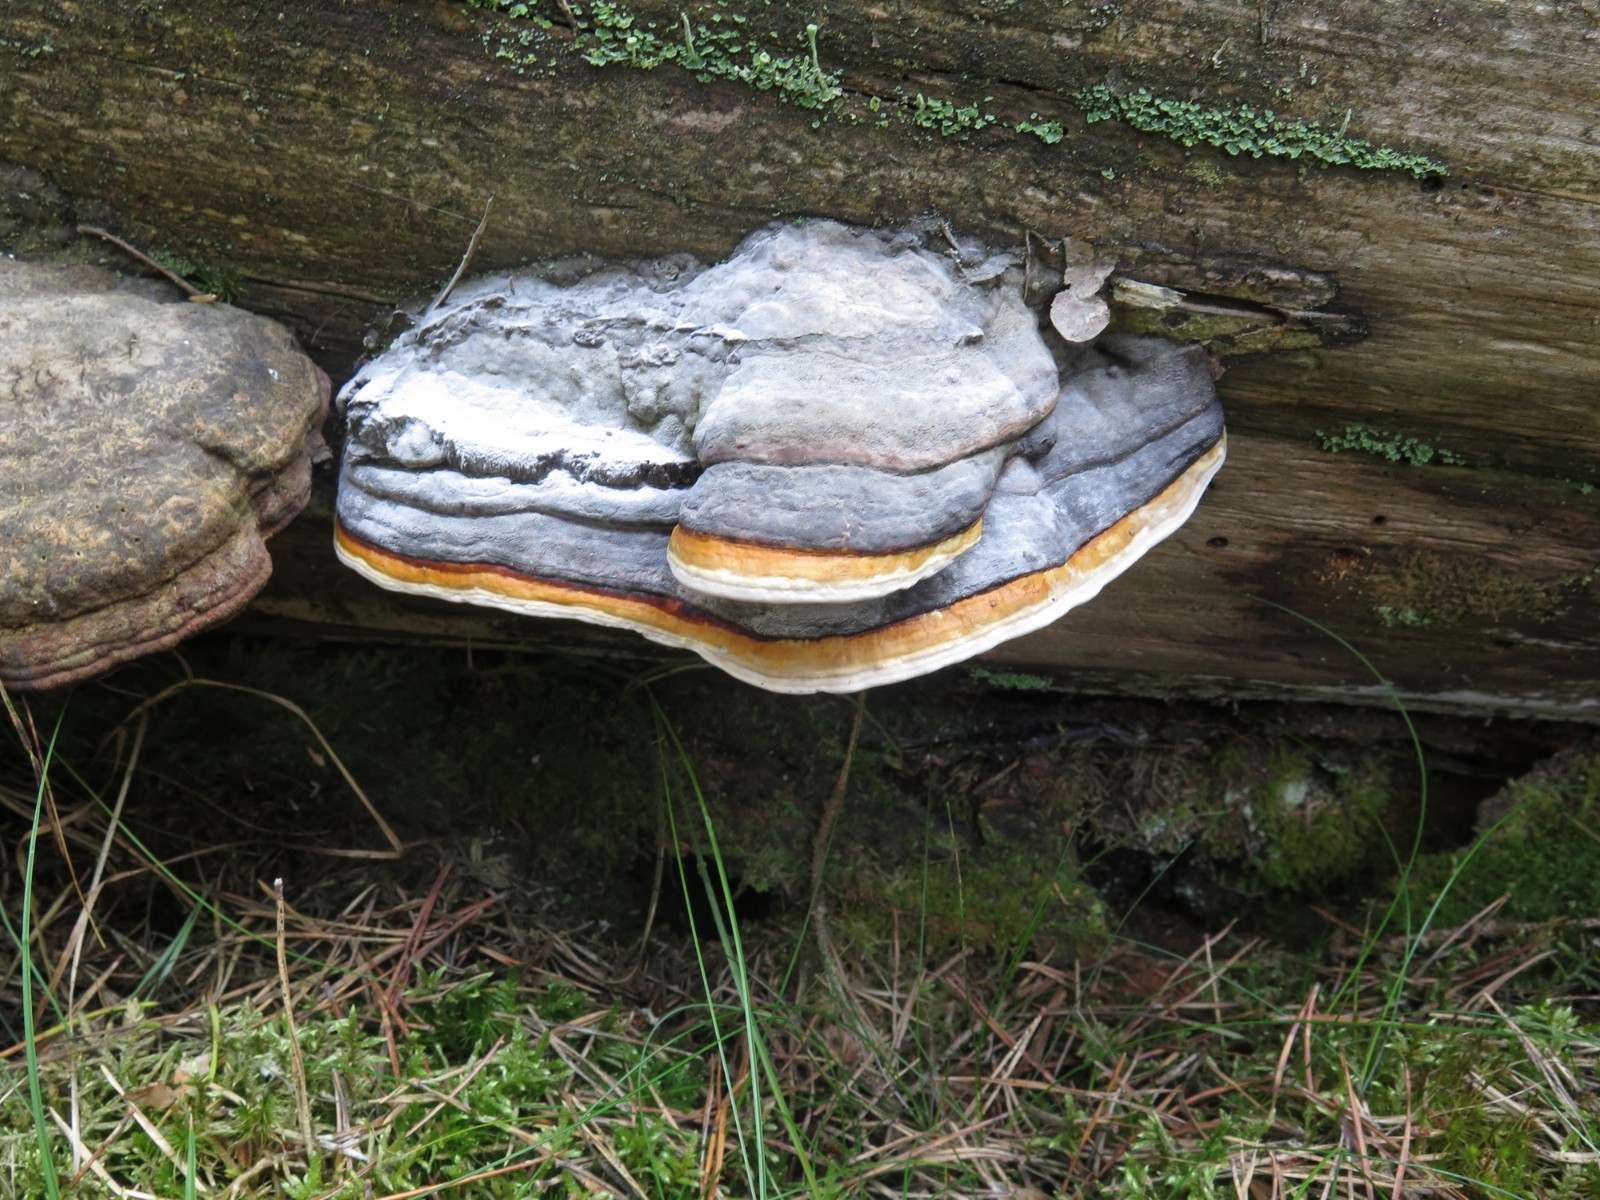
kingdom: Fungi
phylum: Basidiomycota
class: Agaricomycetes
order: Polyporales
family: Fomitopsidaceae
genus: Fomitopsis
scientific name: Fomitopsis pinicola
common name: randbæltet hovporesvamp
